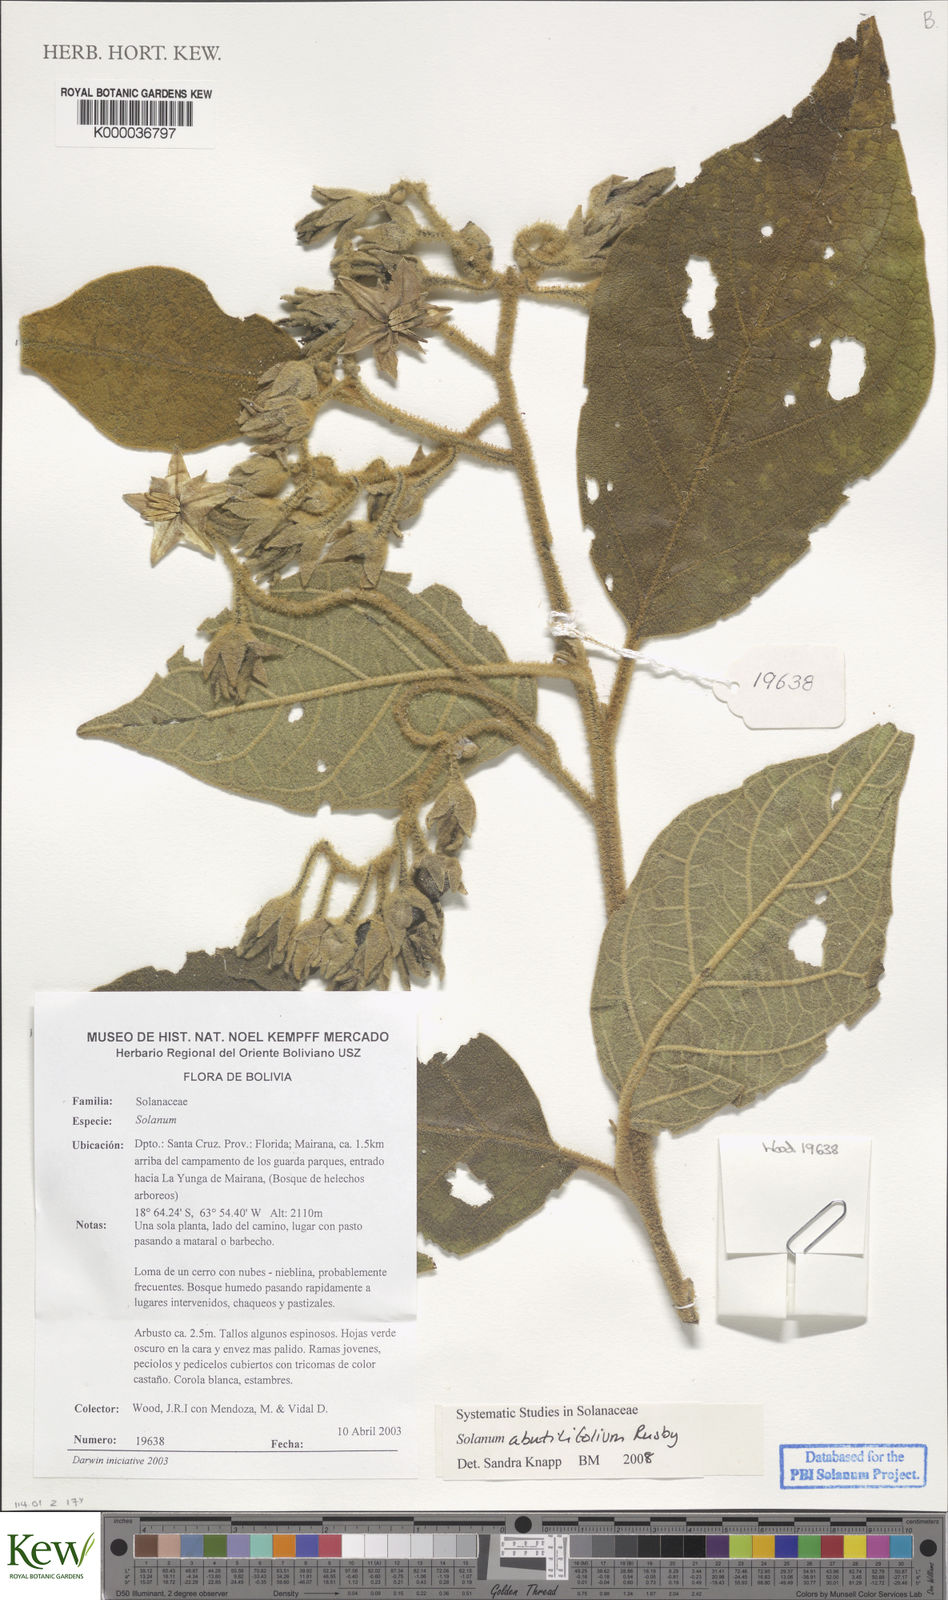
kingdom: Plantae
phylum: Tracheophyta
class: Magnoliopsida
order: Solanales
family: Solanaceae
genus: Solanum
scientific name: Solanum ursinum
